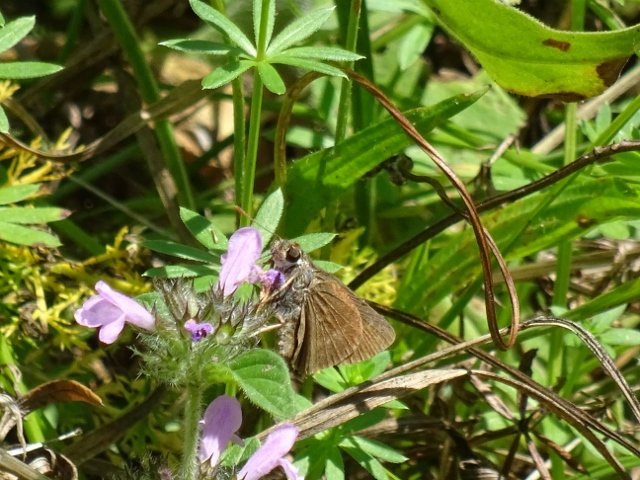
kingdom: Animalia
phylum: Arthropoda
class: Insecta
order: Lepidoptera
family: Hesperiidae
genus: Polites
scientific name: Polites egeremet
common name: Northern Broken-Dash
